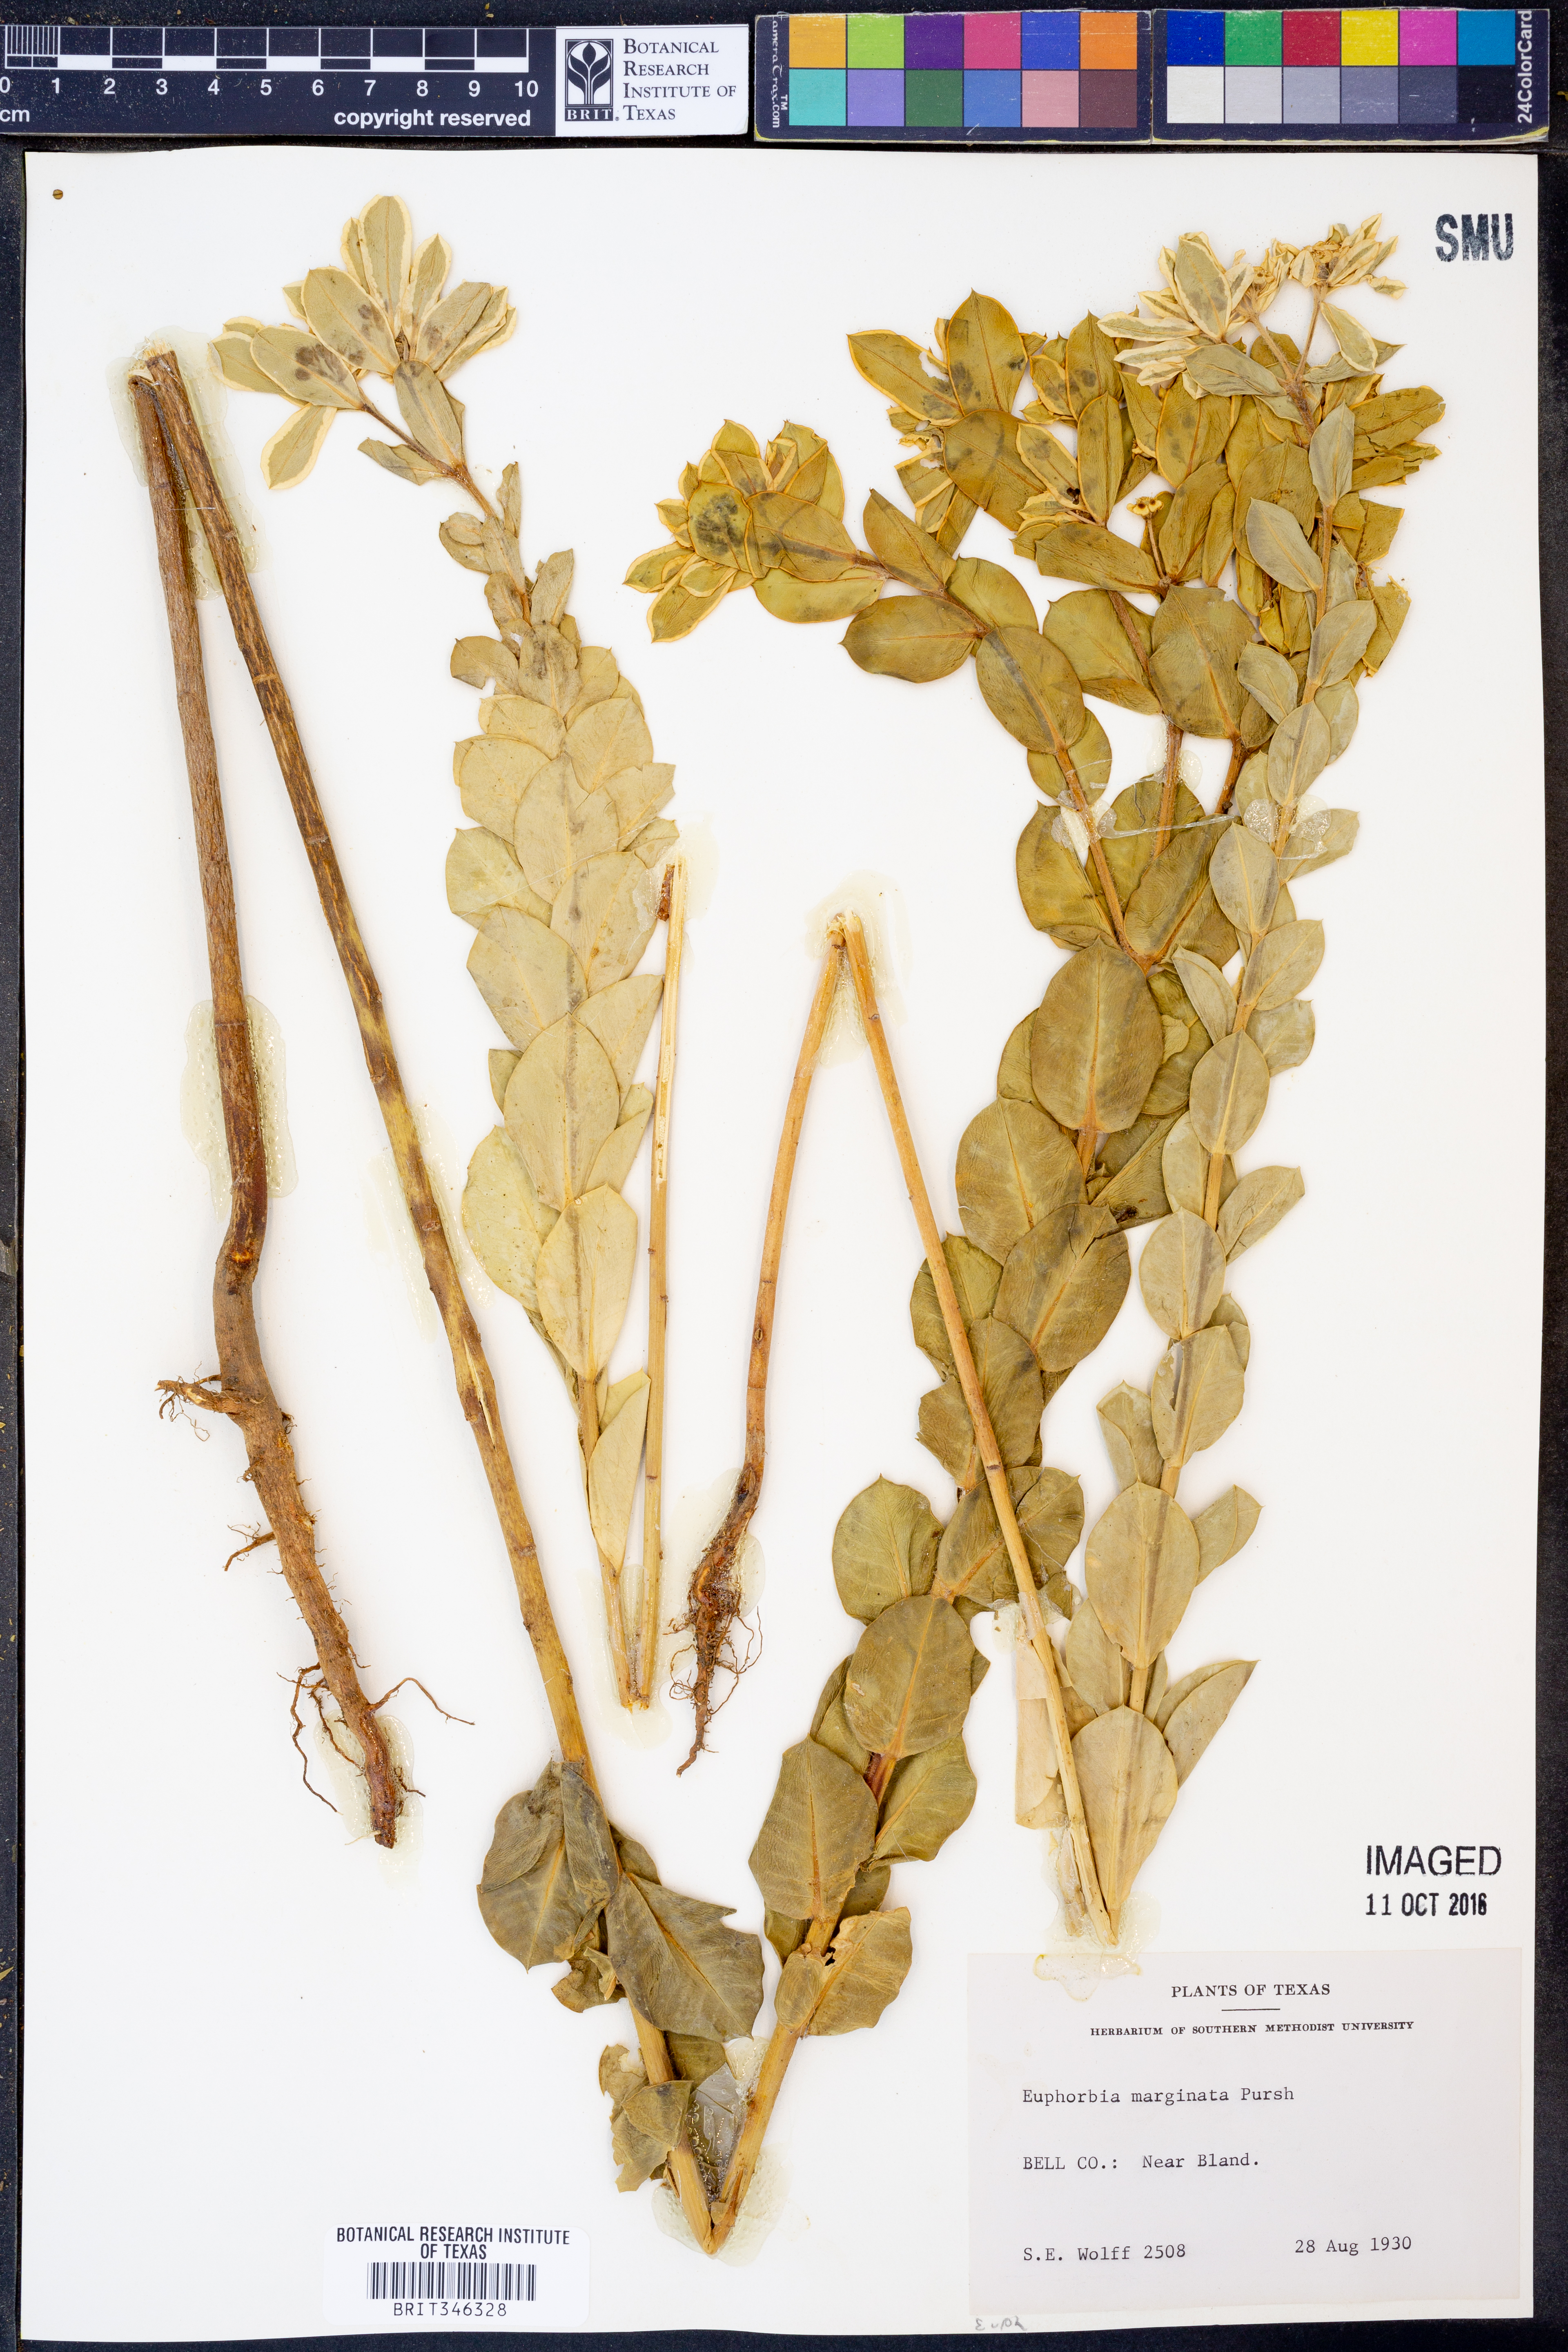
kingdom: Plantae
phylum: Tracheophyta
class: Magnoliopsida
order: Malpighiales
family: Euphorbiaceae
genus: Euphorbia
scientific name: Euphorbia marginata
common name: Ghostweed
